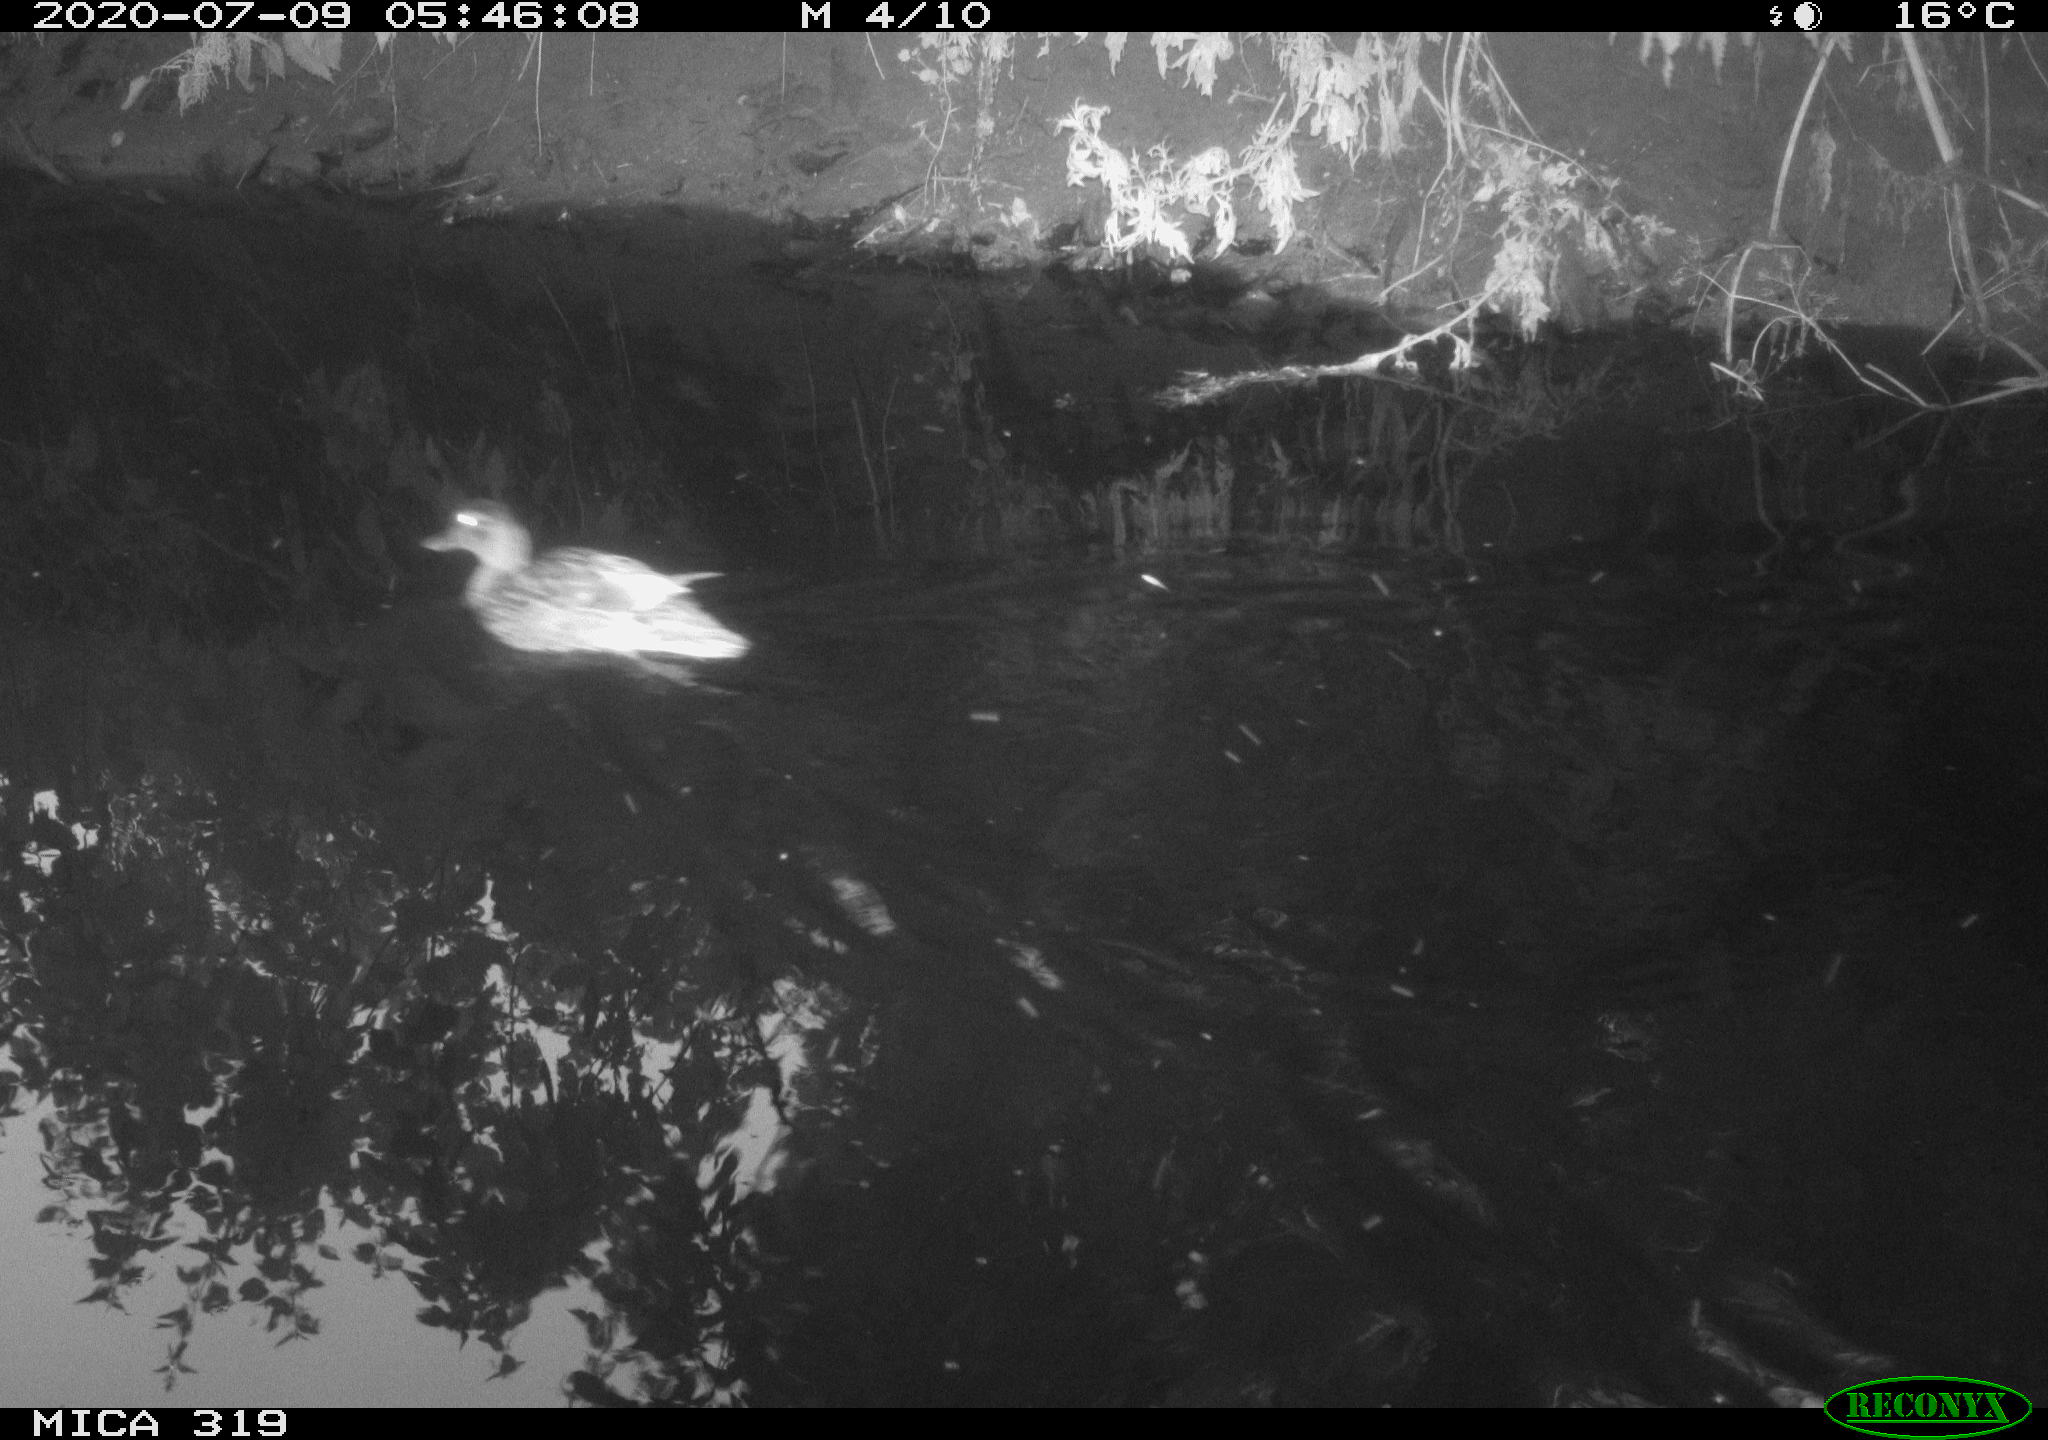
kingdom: Animalia
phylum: Chordata
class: Aves
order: Anseriformes
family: Anatidae
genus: Anas
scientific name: Anas platyrhynchos
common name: Mallard
